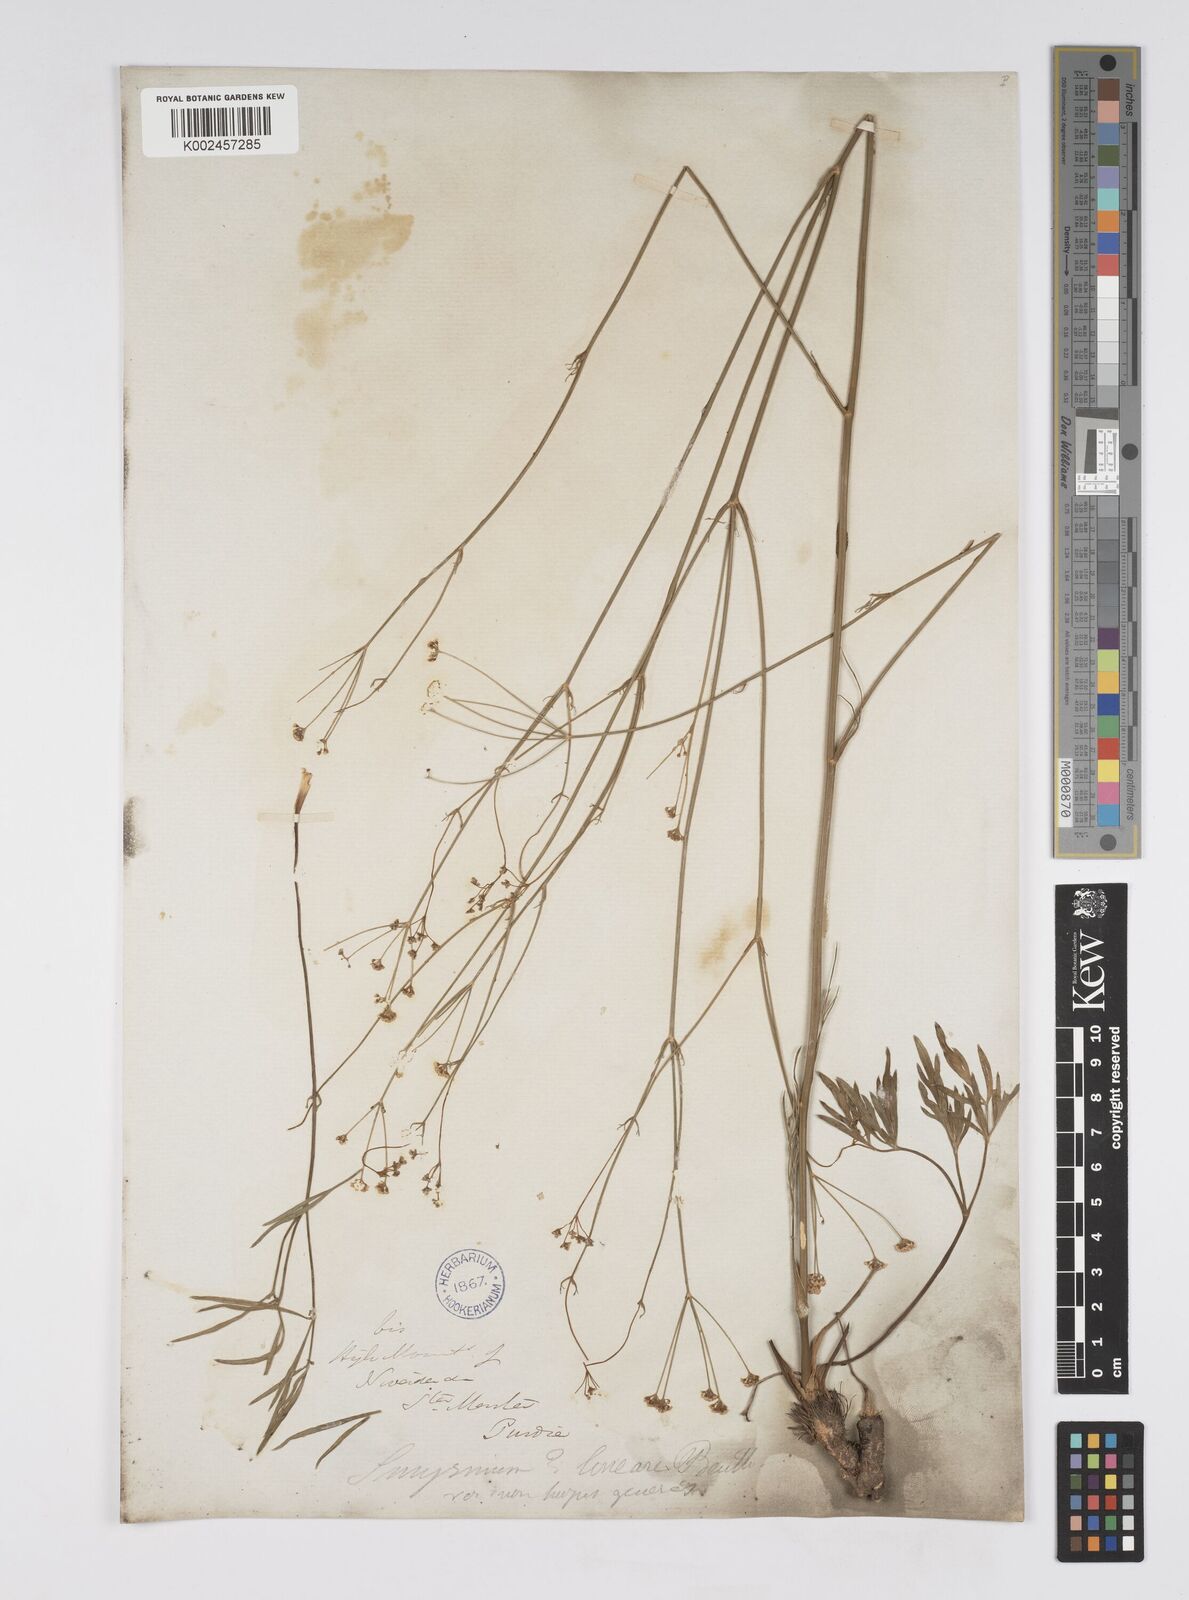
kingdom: Plantae
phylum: Tracheophyta
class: Magnoliopsida
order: Apiales
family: Apiaceae
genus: Donnellsmithia
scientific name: Donnellsmithia
